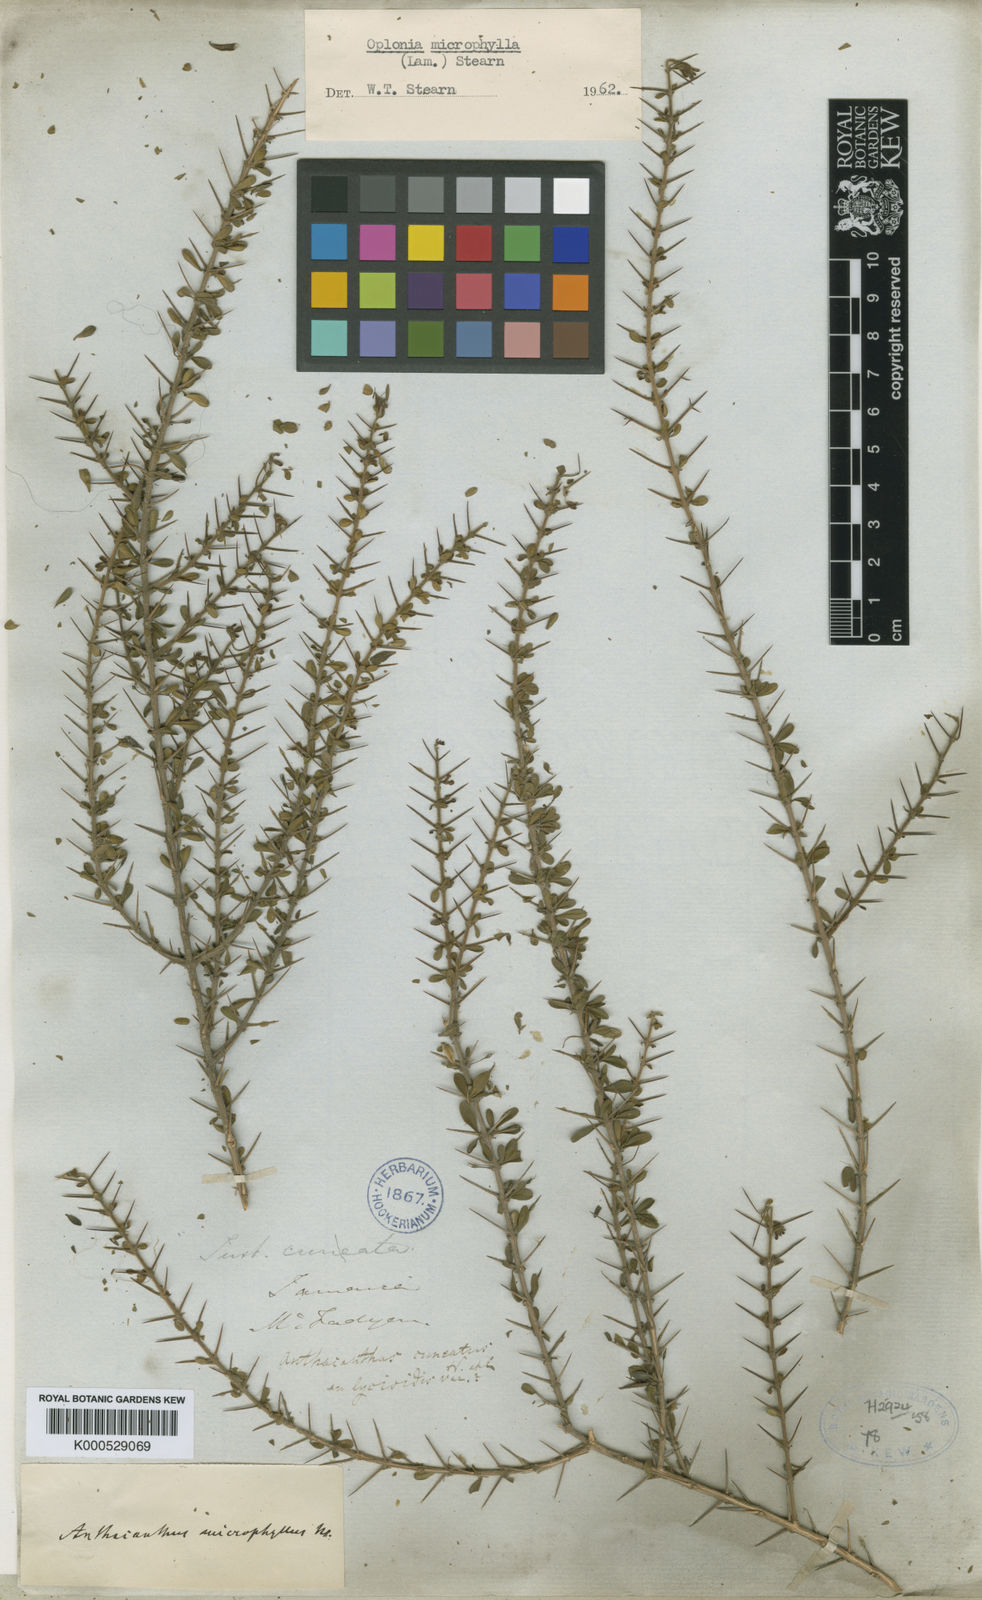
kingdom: Plantae
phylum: Tracheophyta
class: Magnoliopsida
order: Lamiales
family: Acanthaceae
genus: Oplonia
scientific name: Oplonia microphylla
